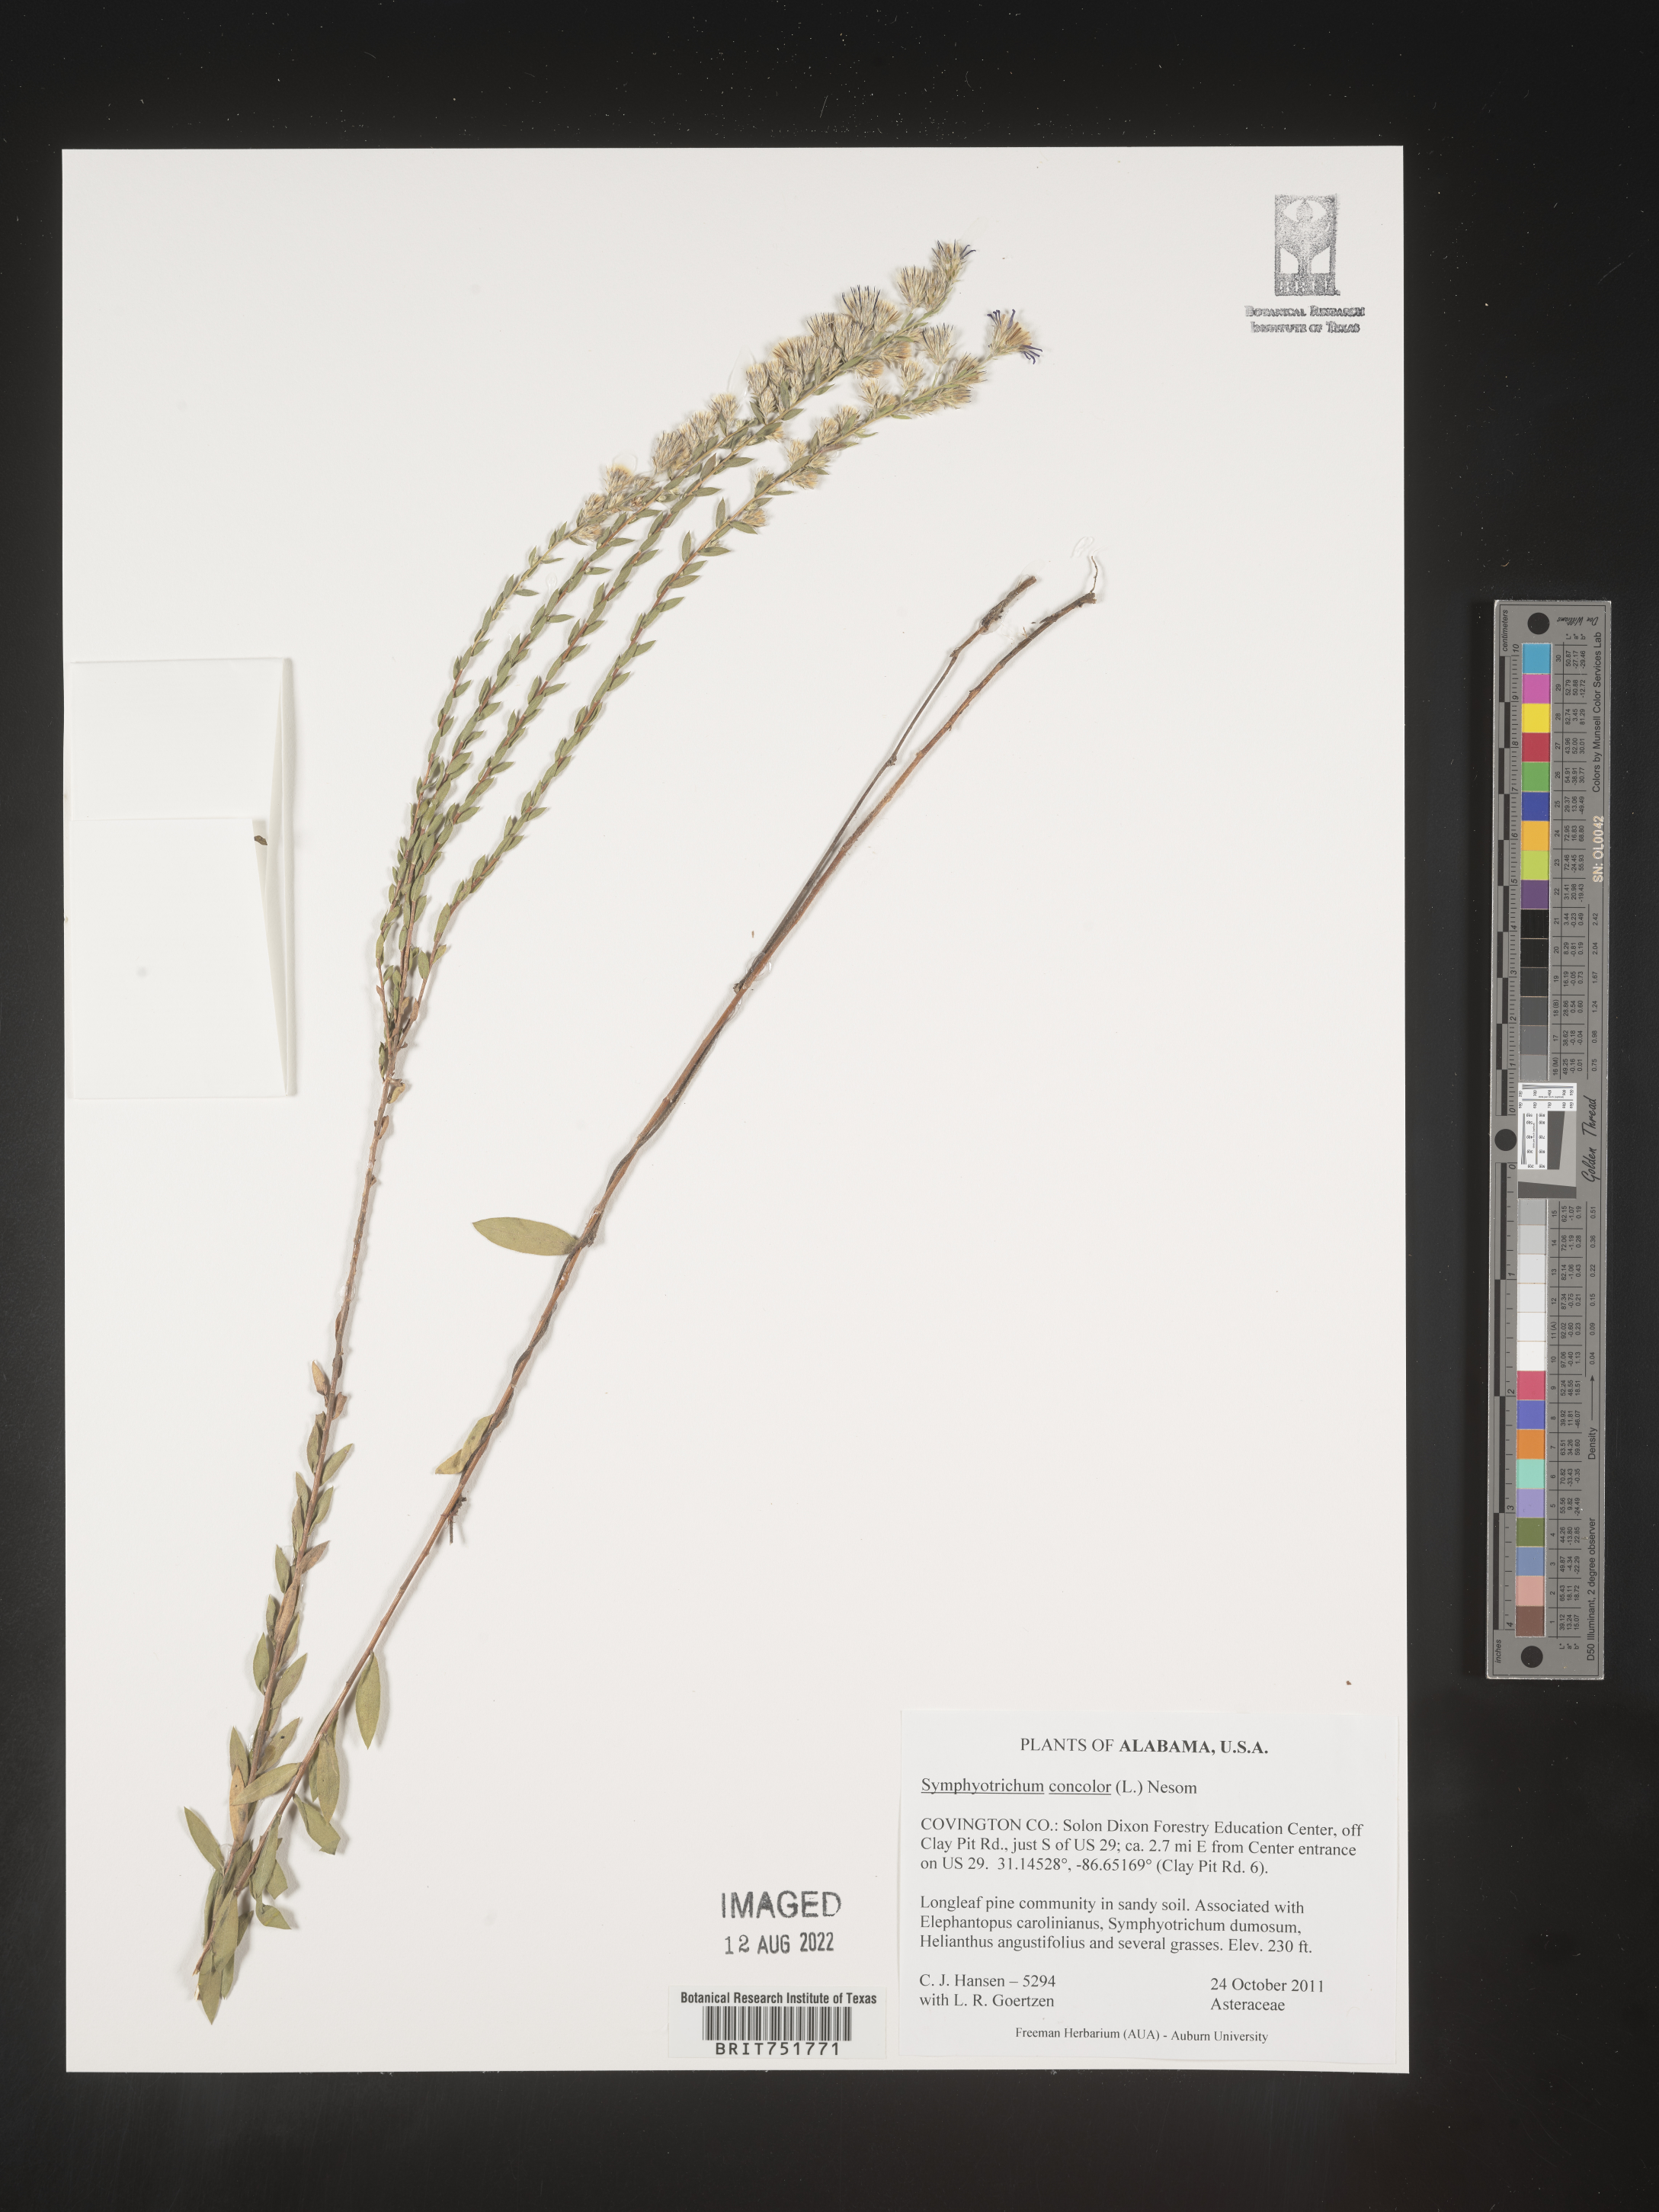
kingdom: Plantae
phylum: Tracheophyta
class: Magnoliopsida
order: Asterales
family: Asteraceae
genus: Symphyotrichum
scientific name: Symphyotrichum concolor
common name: Eastern silver aster
